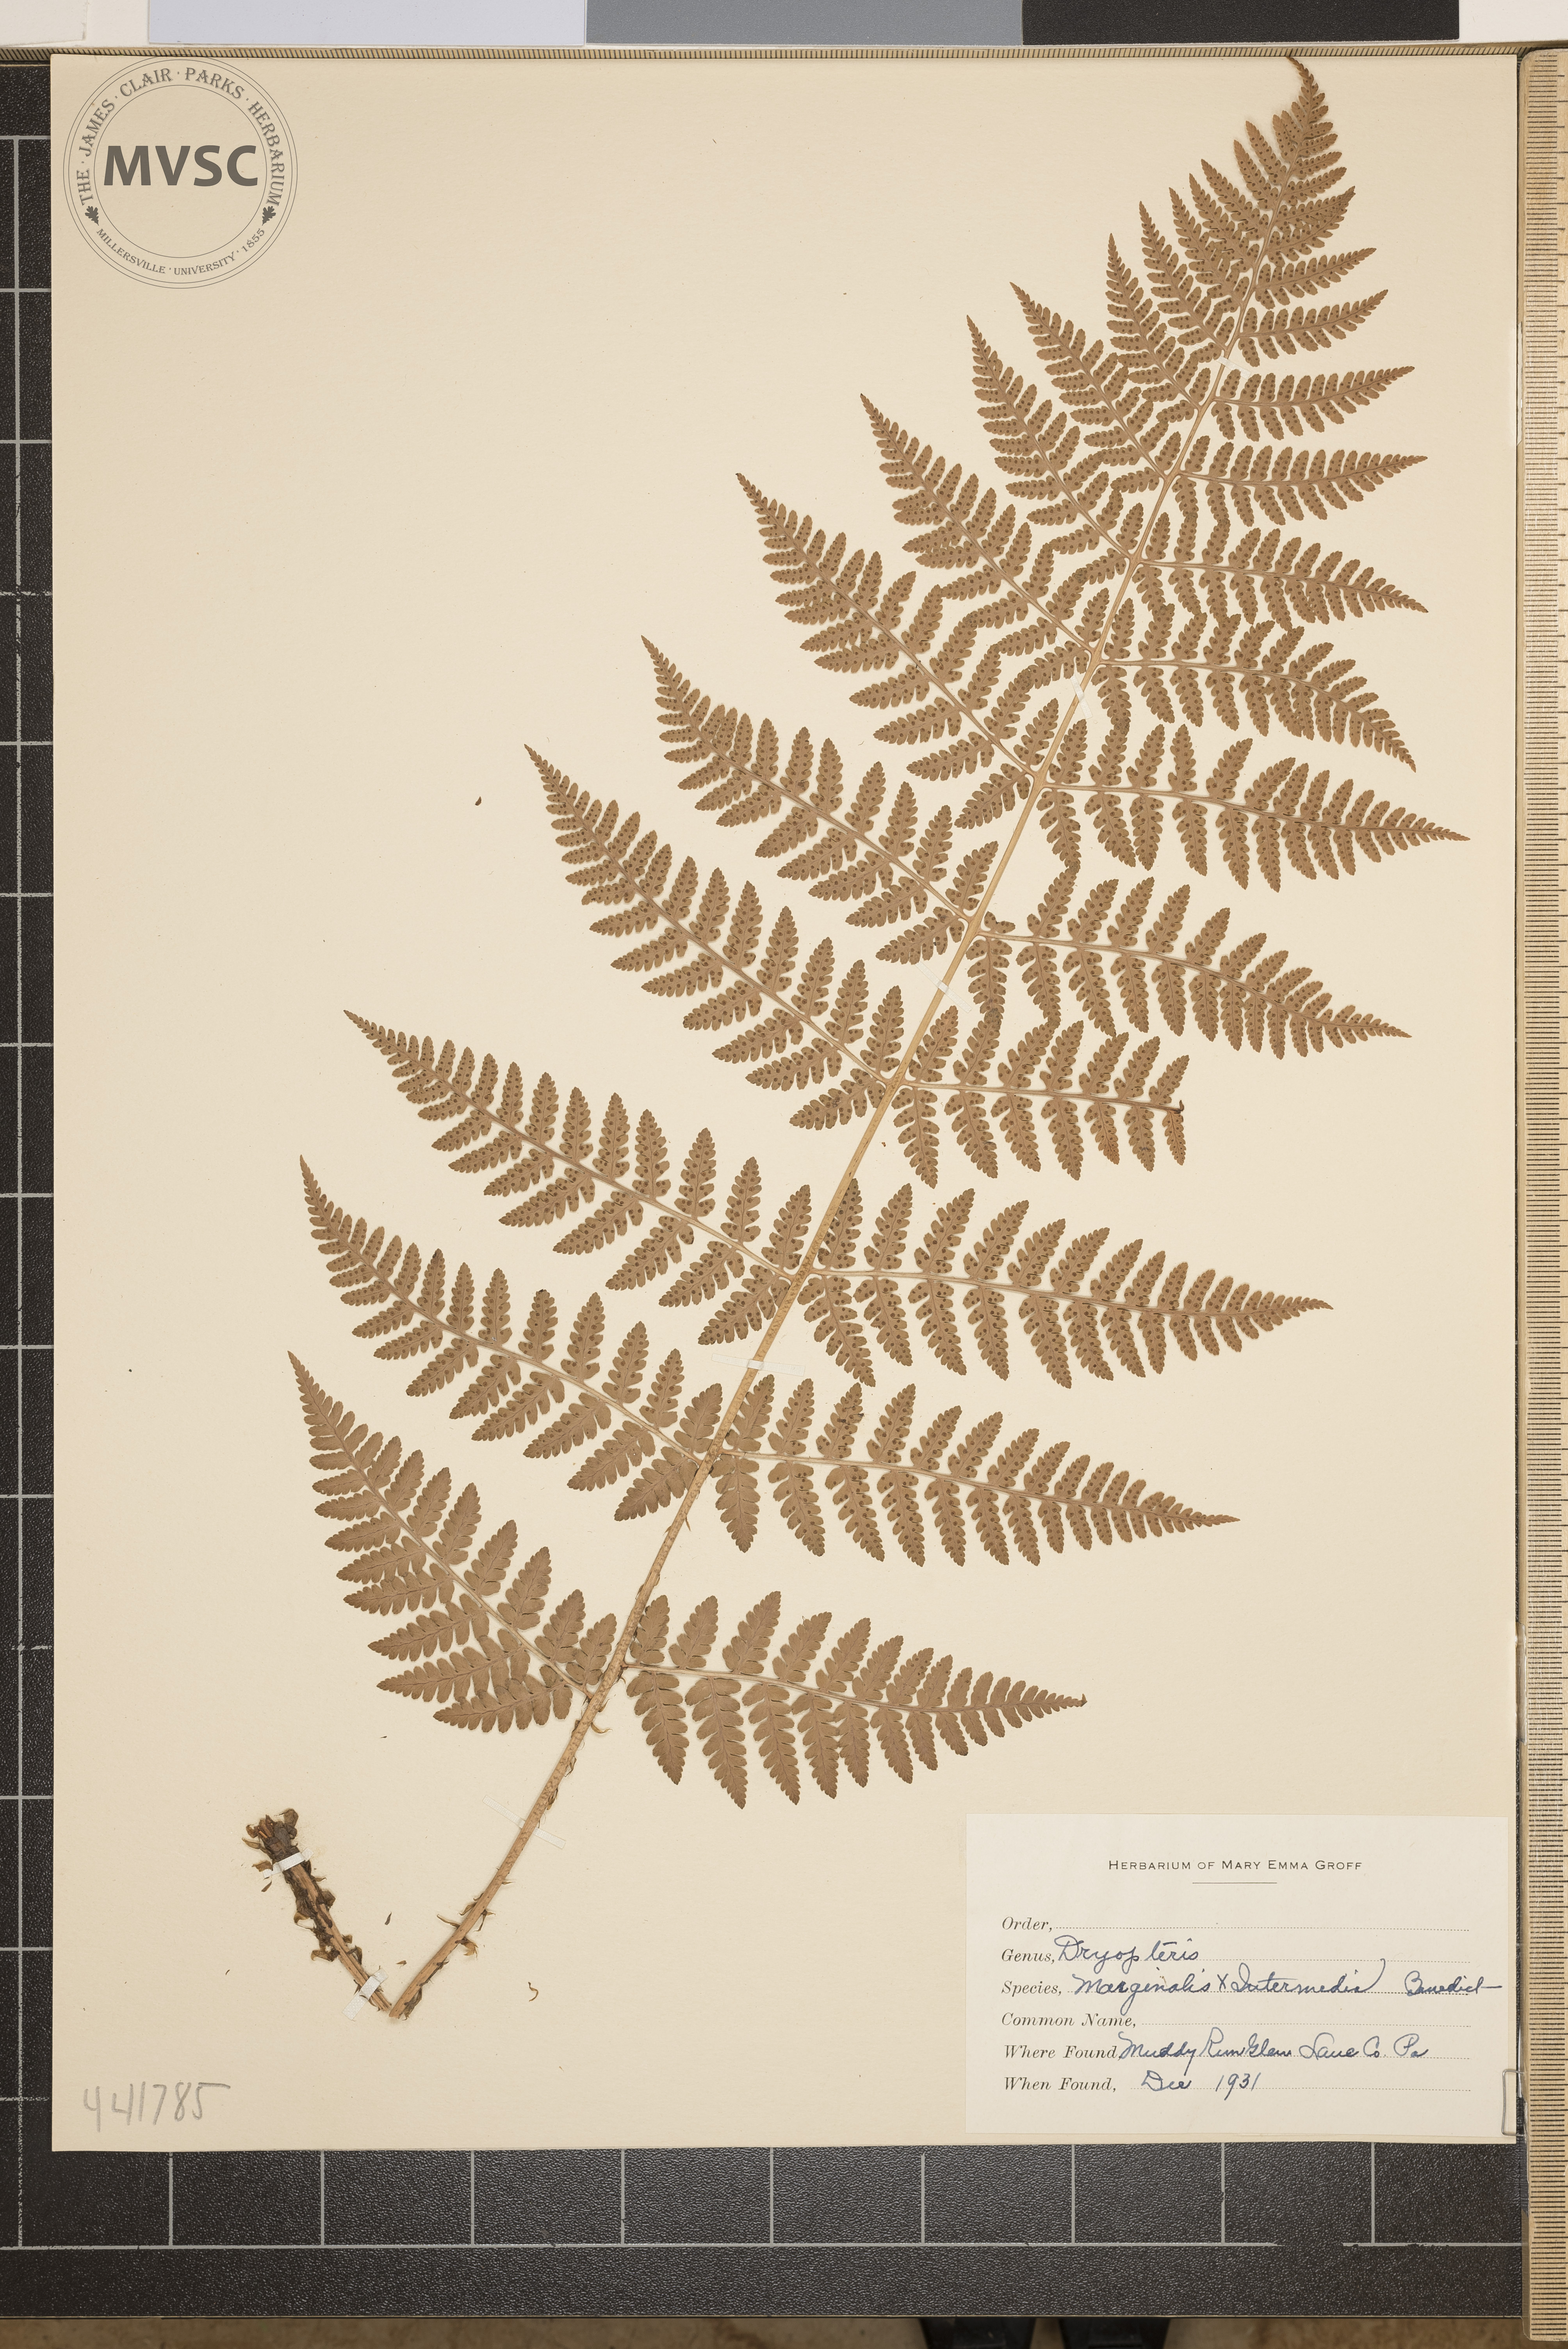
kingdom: Plantae
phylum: Tracheophyta
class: Polypodiopsida
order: Polypodiales
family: Dryopteridaceae
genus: Dryopteris
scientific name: Dryopteris
